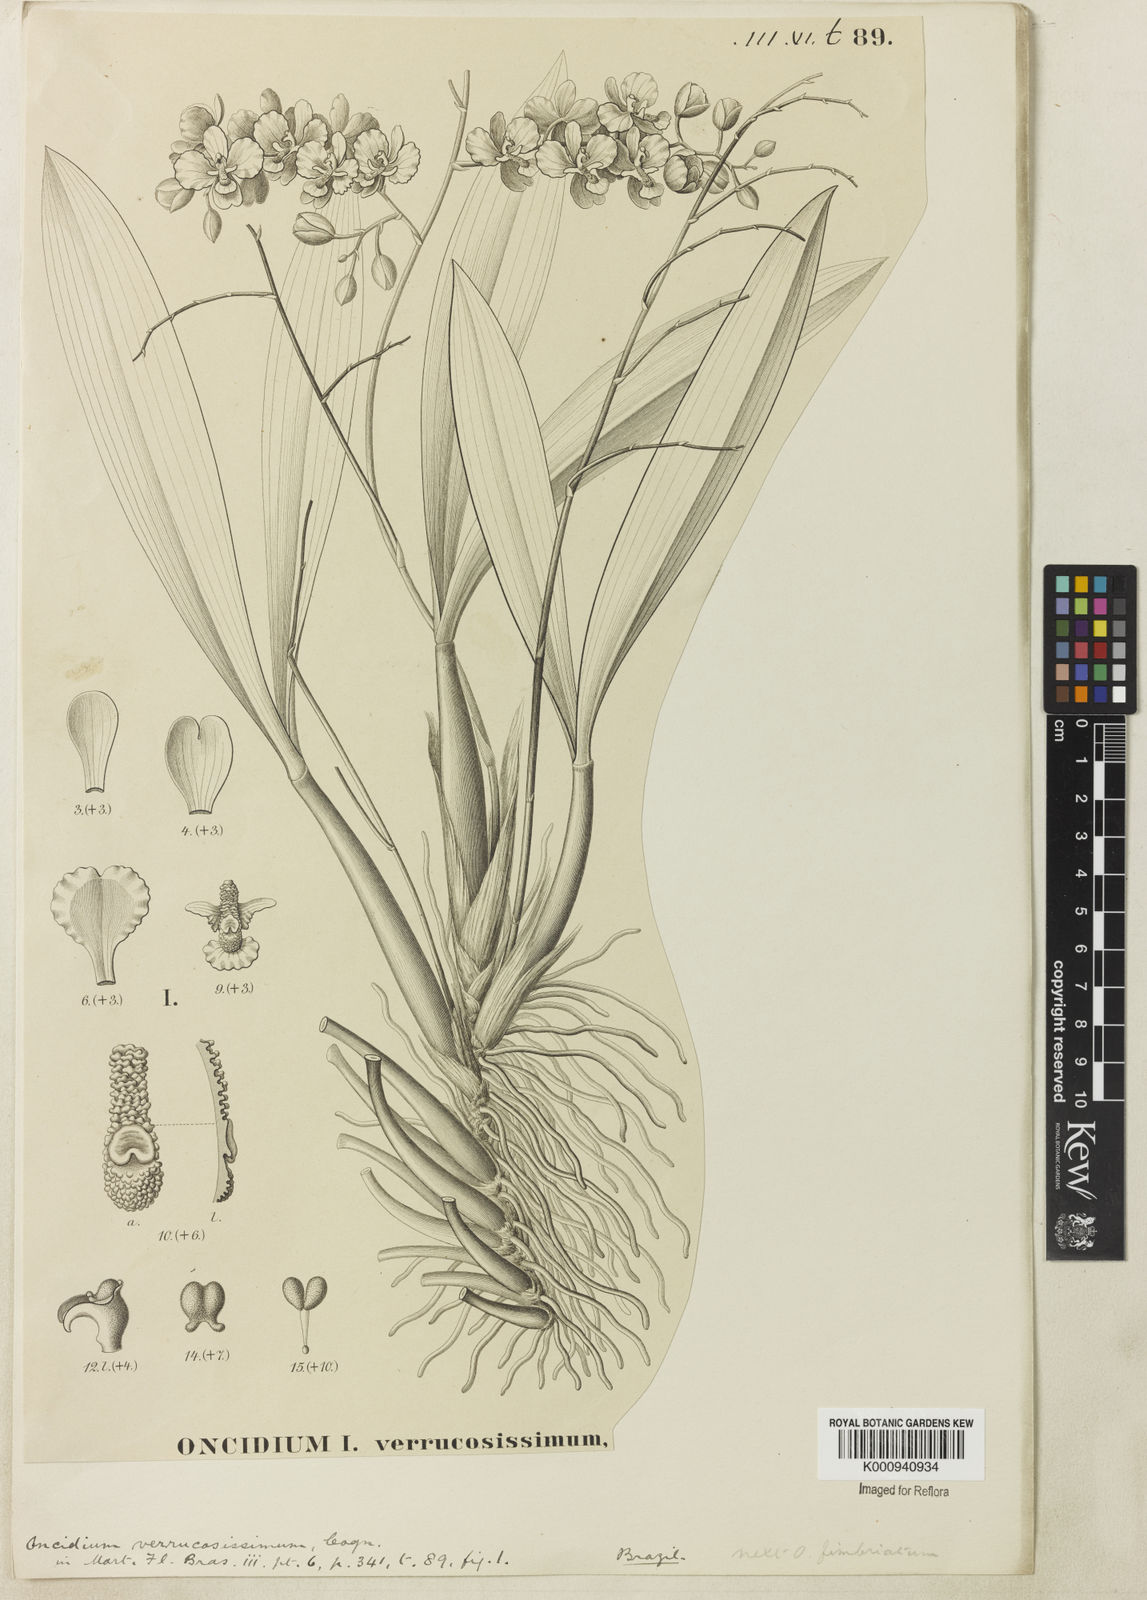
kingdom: Plantae
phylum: Tracheophyta
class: Liliopsida
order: Asparagales
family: Orchidaceae
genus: Gomesa
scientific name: Gomesa brieniana
